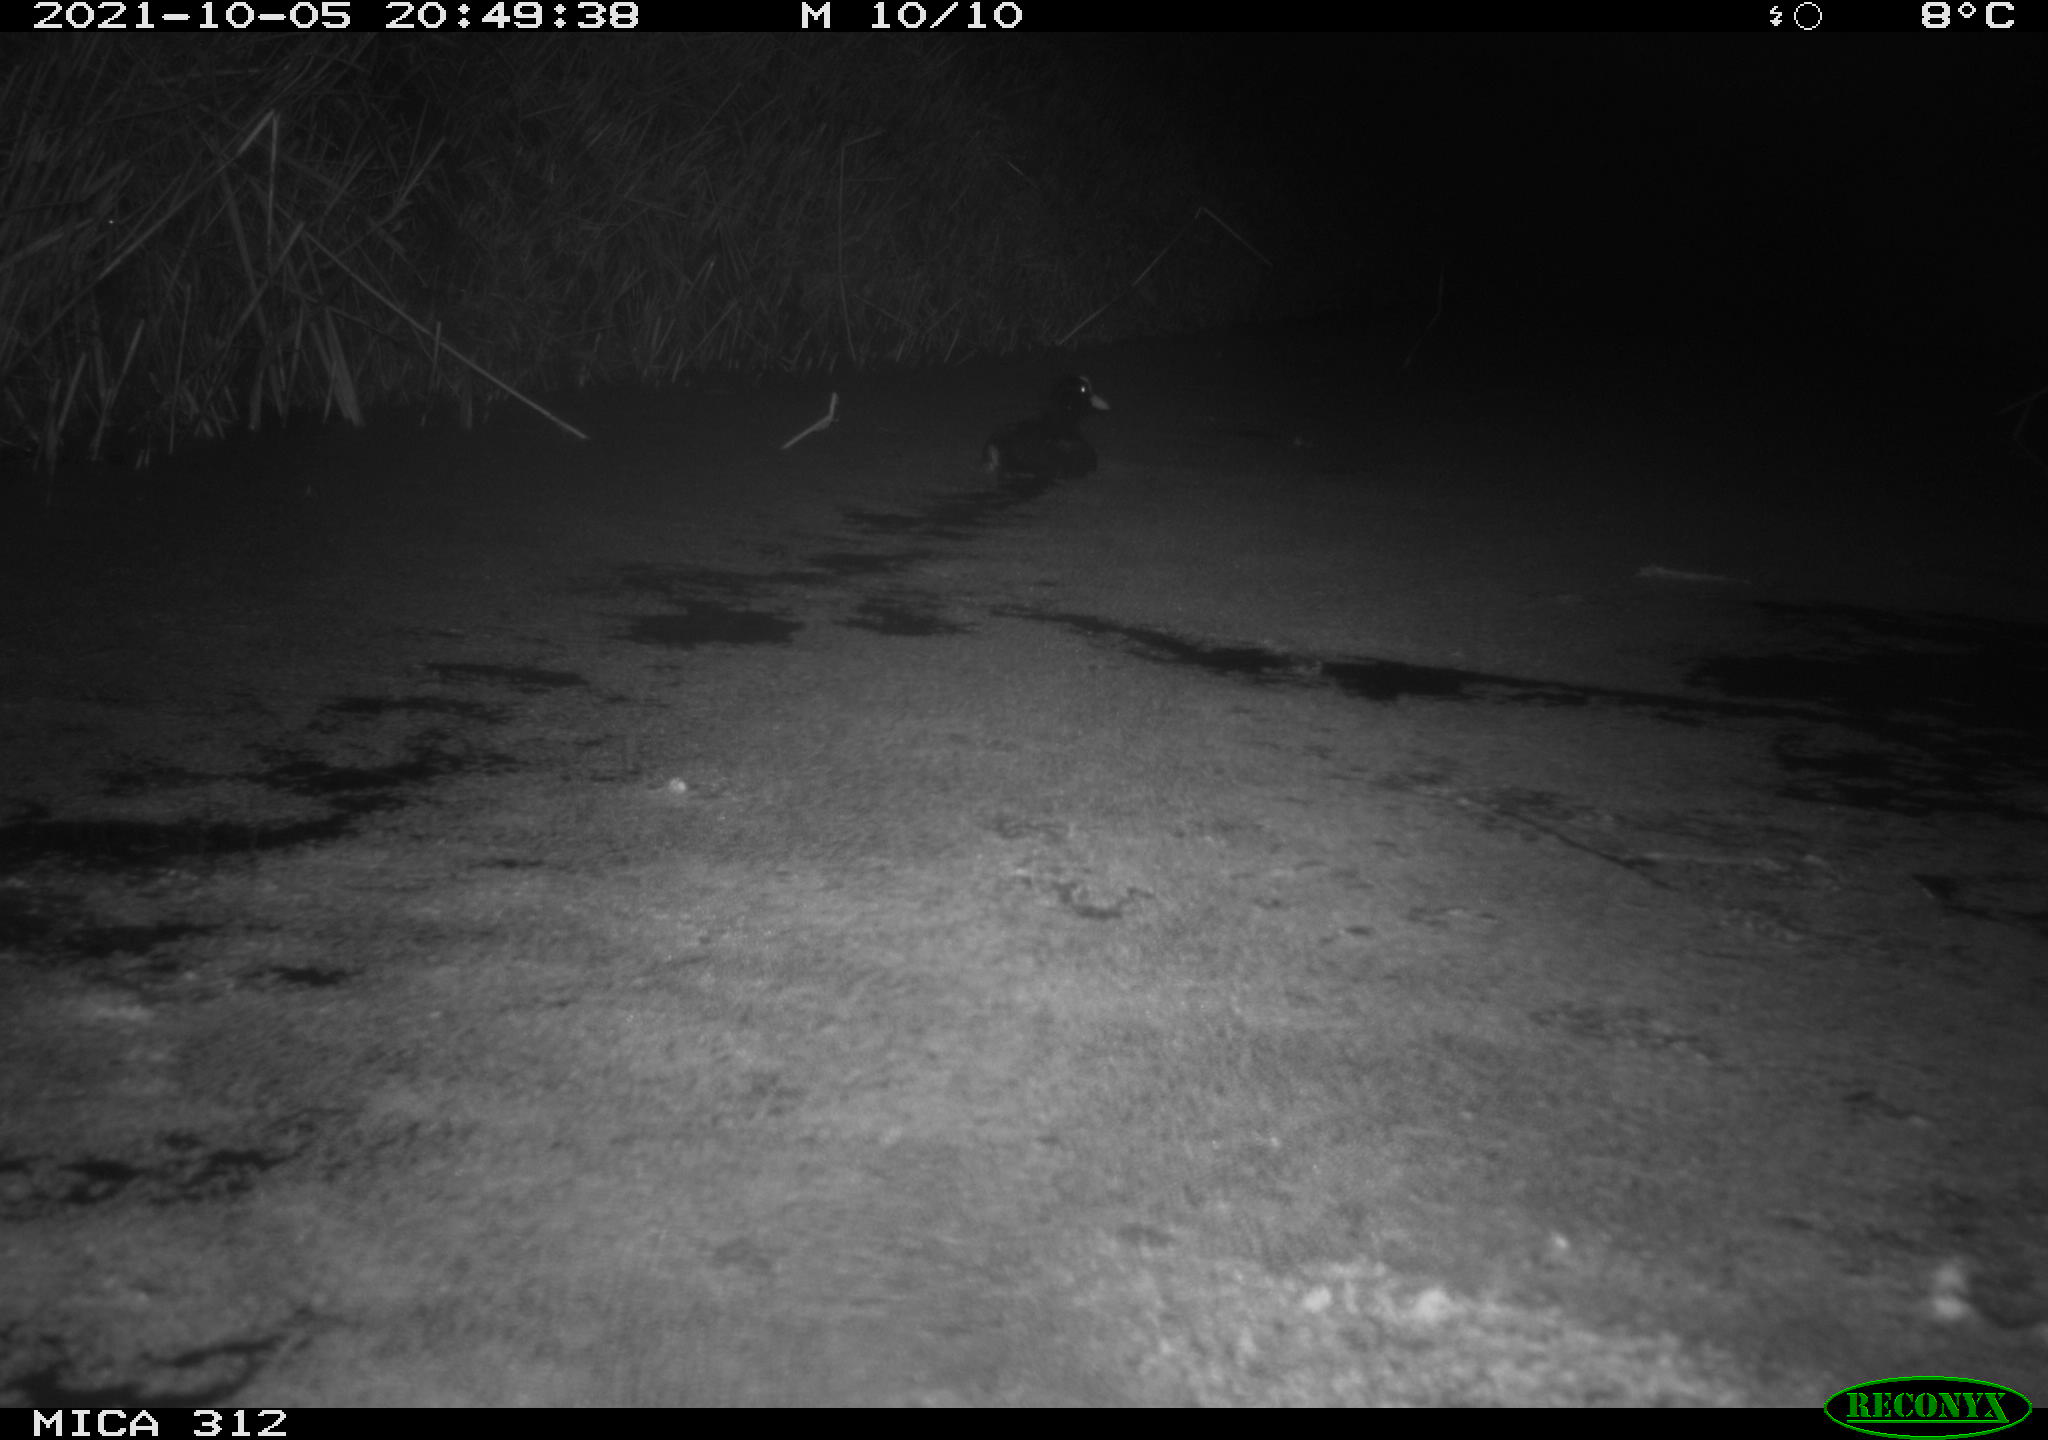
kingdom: Animalia
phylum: Chordata
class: Aves
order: Gruiformes
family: Rallidae
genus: Gallinula
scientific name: Gallinula chloropus
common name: Common moorhen
